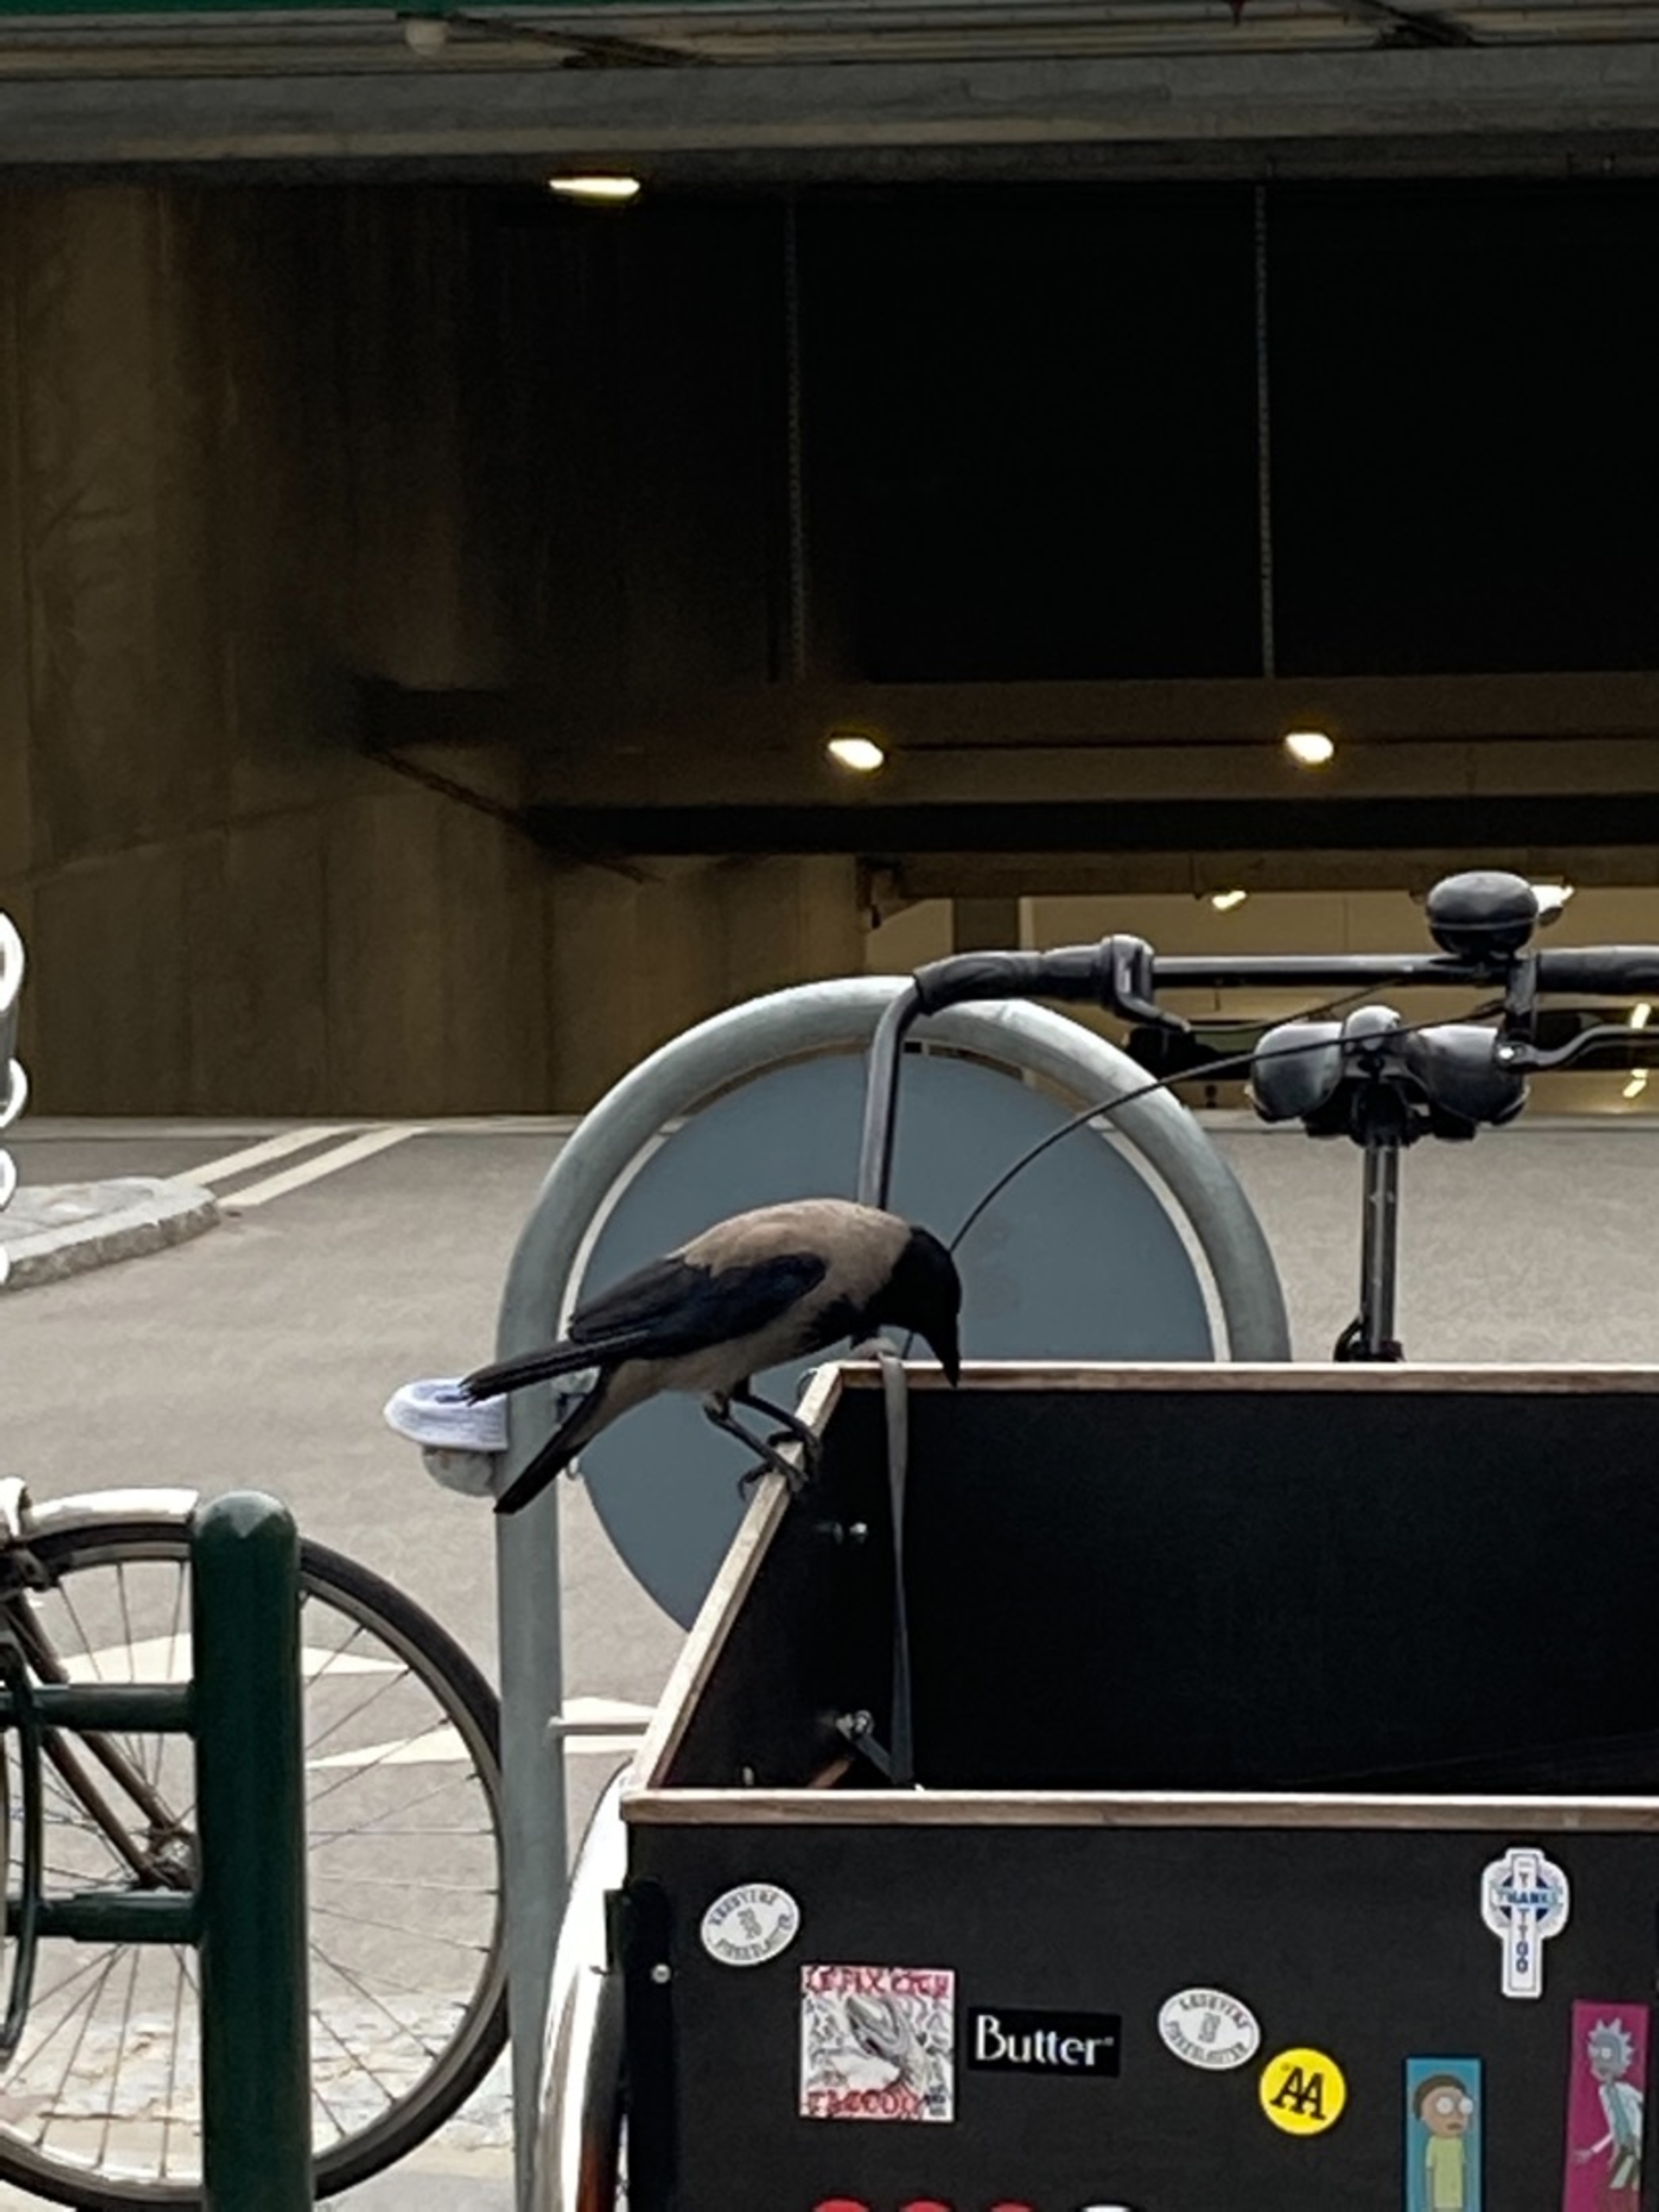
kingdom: Animalia
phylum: Chordata
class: Aves
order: Passeriformes
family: Corvidae
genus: Corvus
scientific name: Corvus cornix
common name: Gråkrage
